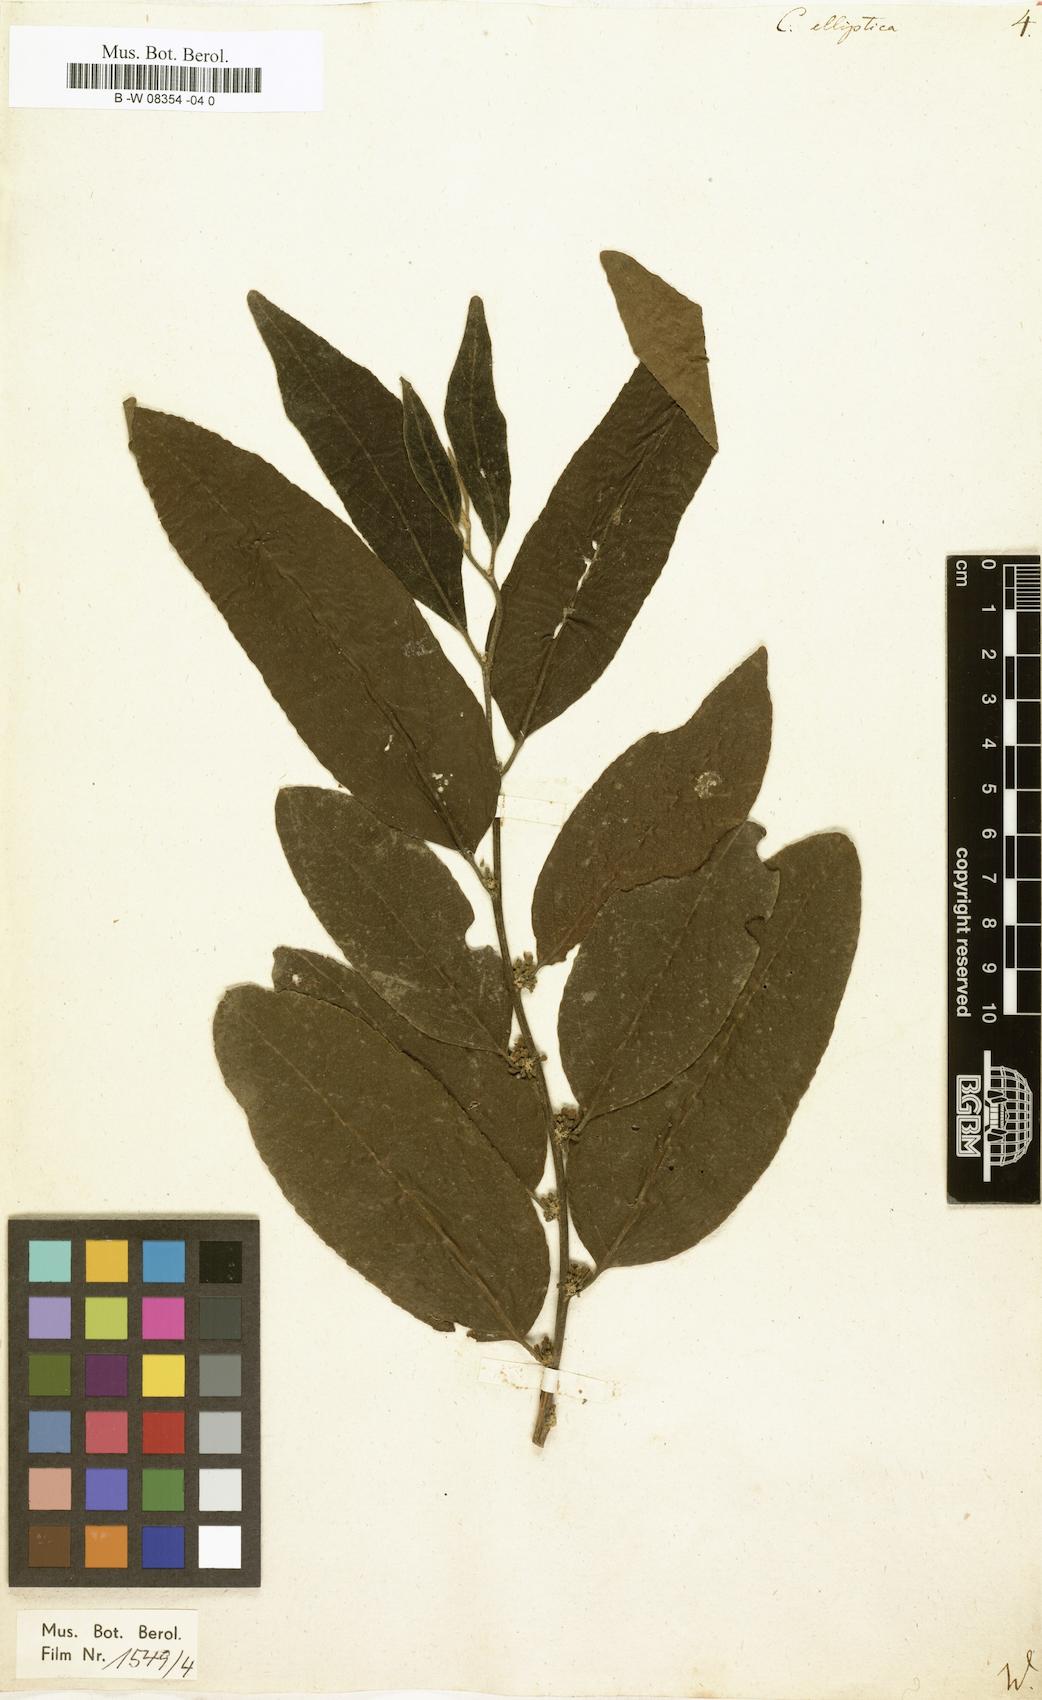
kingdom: Plantae
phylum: Tracheophyta
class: Magnoliopsida
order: Malpighiales
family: Salicaceae
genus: Casearia
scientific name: Casearia elliptica
